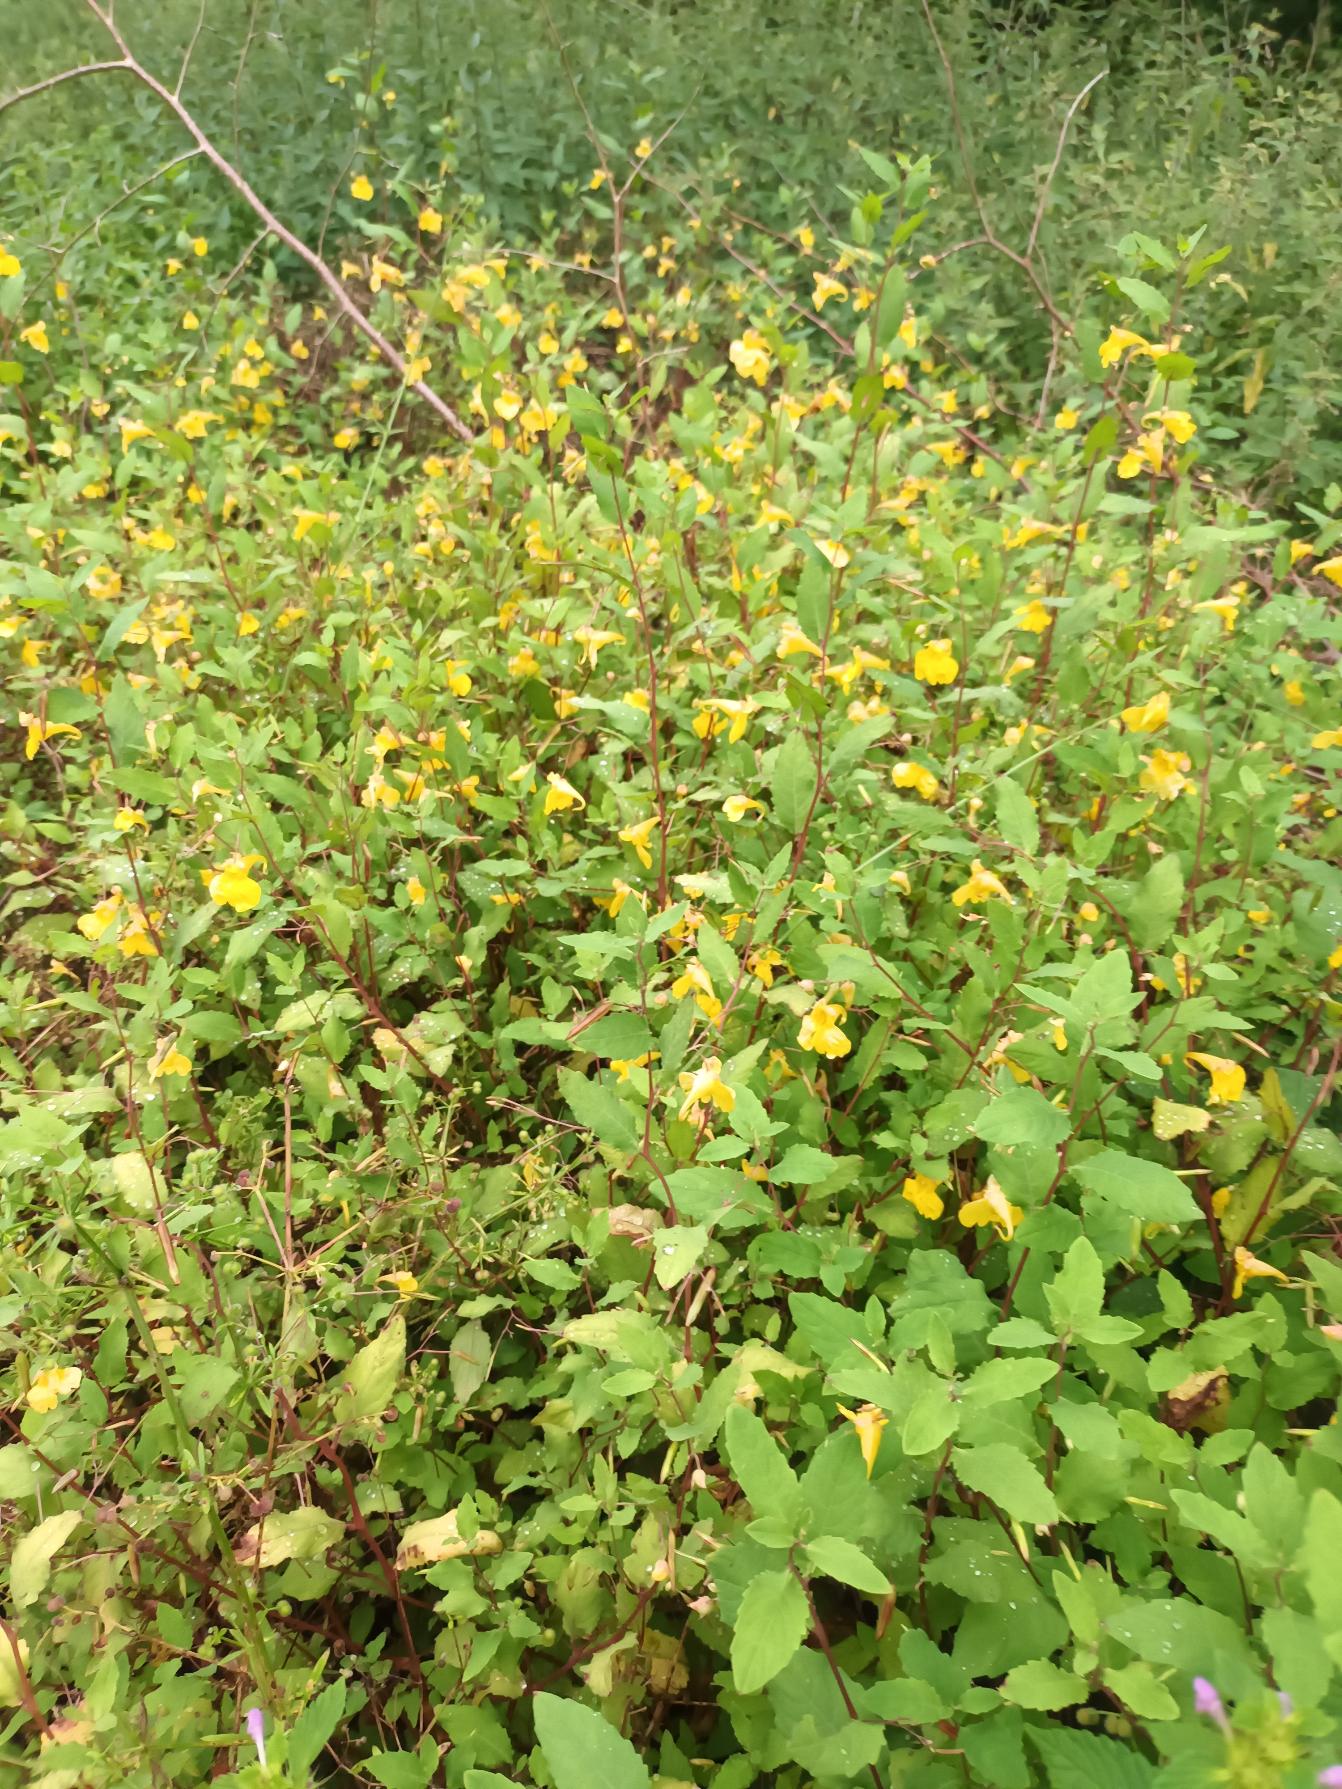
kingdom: Plantae
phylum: Tracheophyta
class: Magnoliopsida
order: Ericales
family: Balsaminaceae
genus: Impatiens
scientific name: Impatiens noli-tangere
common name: Spring-balsamin
